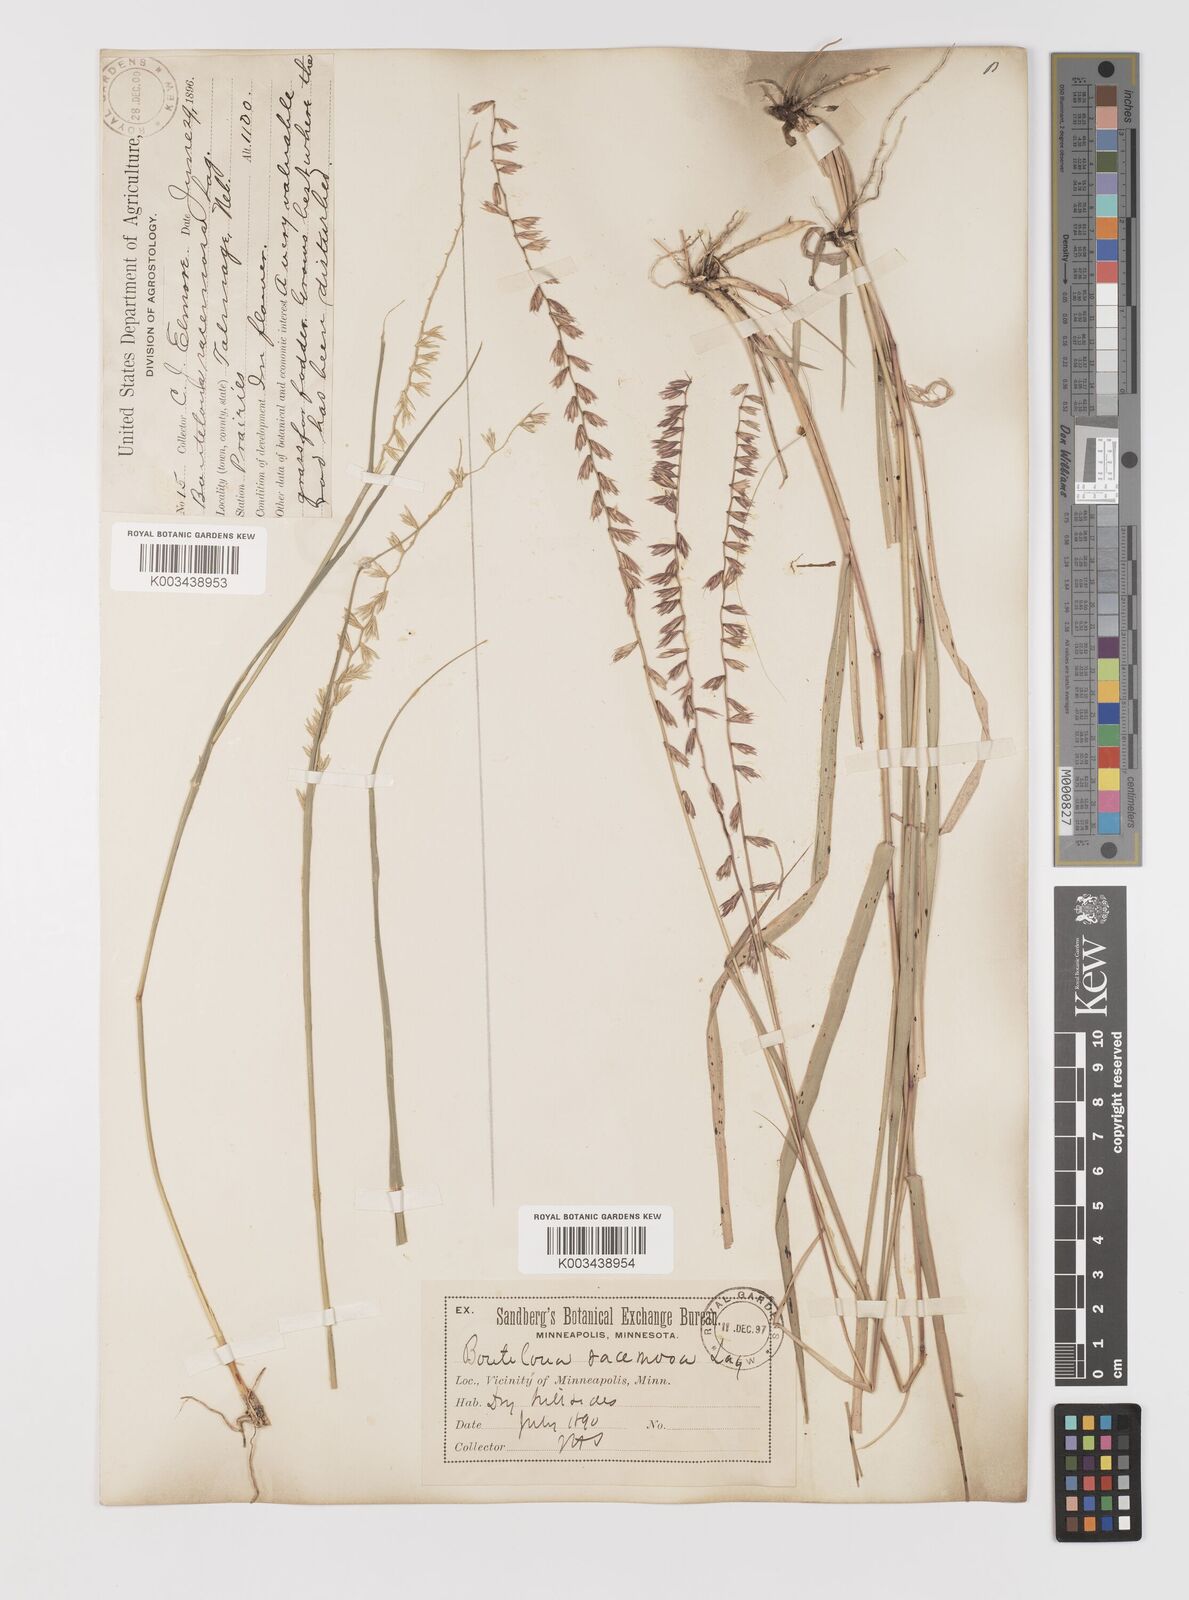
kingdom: Plantae
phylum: Tracheophyta
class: Liliopsida
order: Poales
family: Poaceae
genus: Bouteloua
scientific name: Bouteloua curtipendula
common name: Side-oats grama
